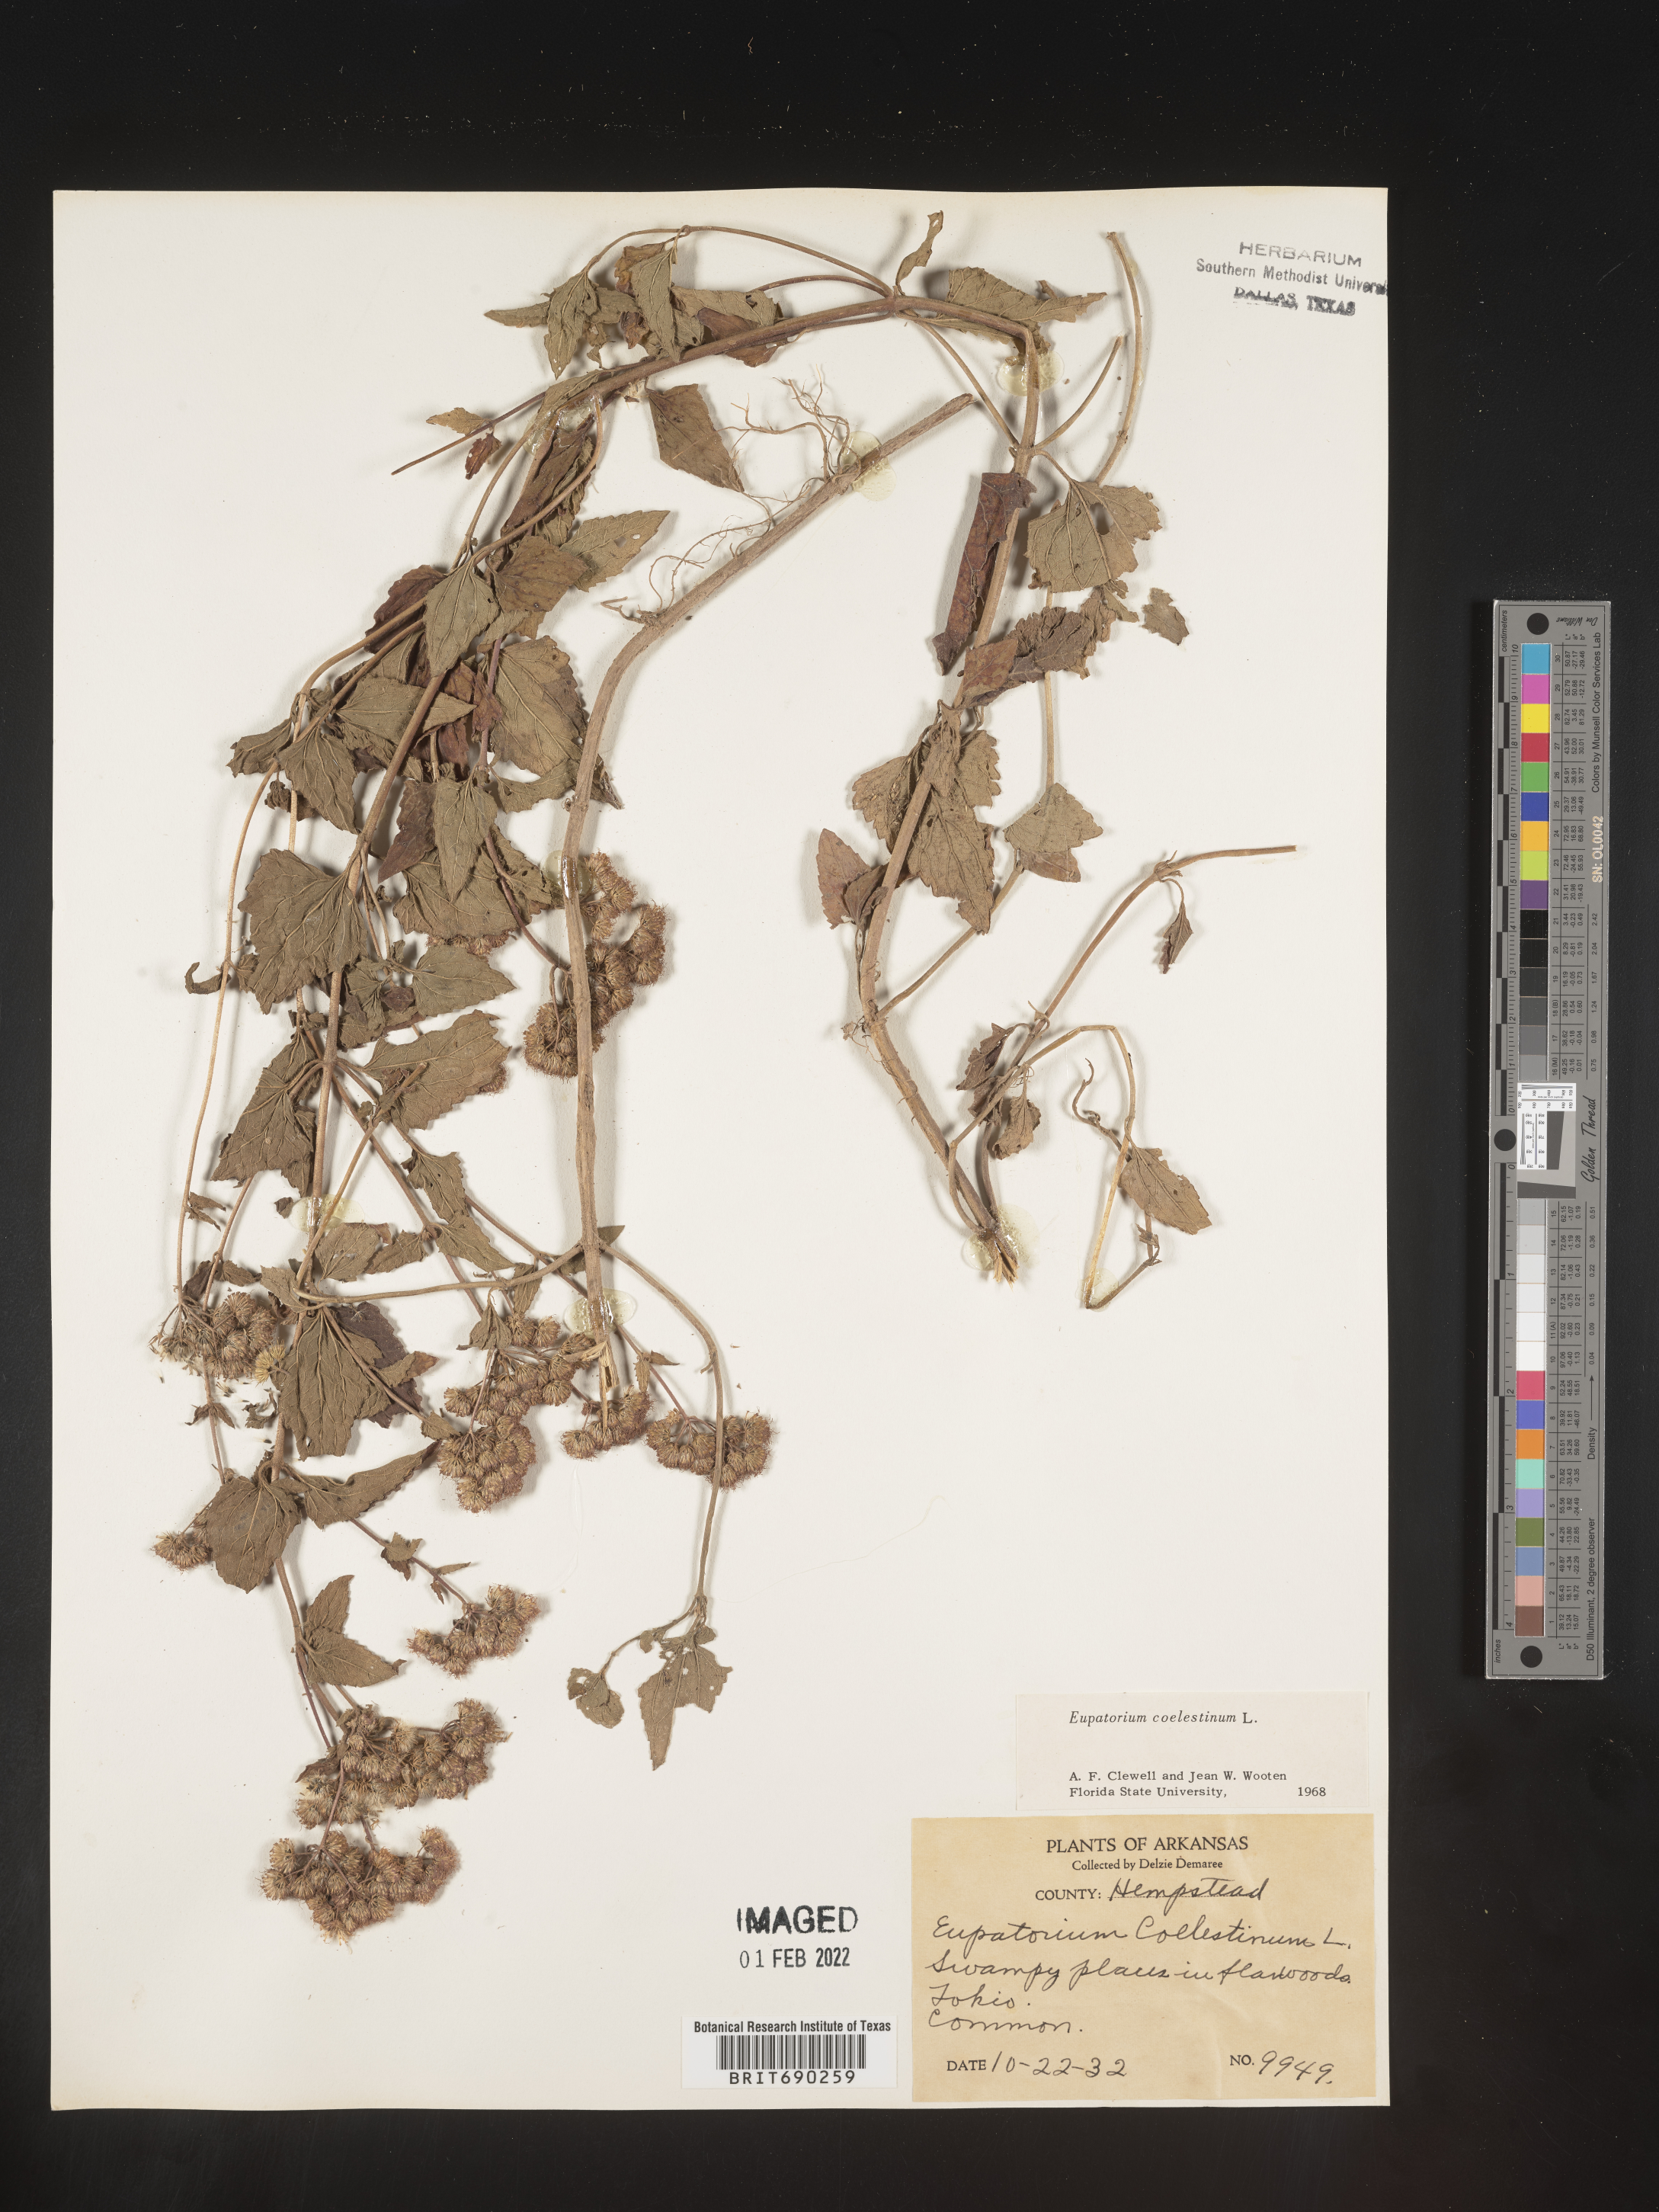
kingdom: Plantae
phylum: Tracheophyta
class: Magnoliopsida
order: Asterales
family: Asteraceae
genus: Conoclinium
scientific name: Conoclinium coelestinum
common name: Blue mistflower
